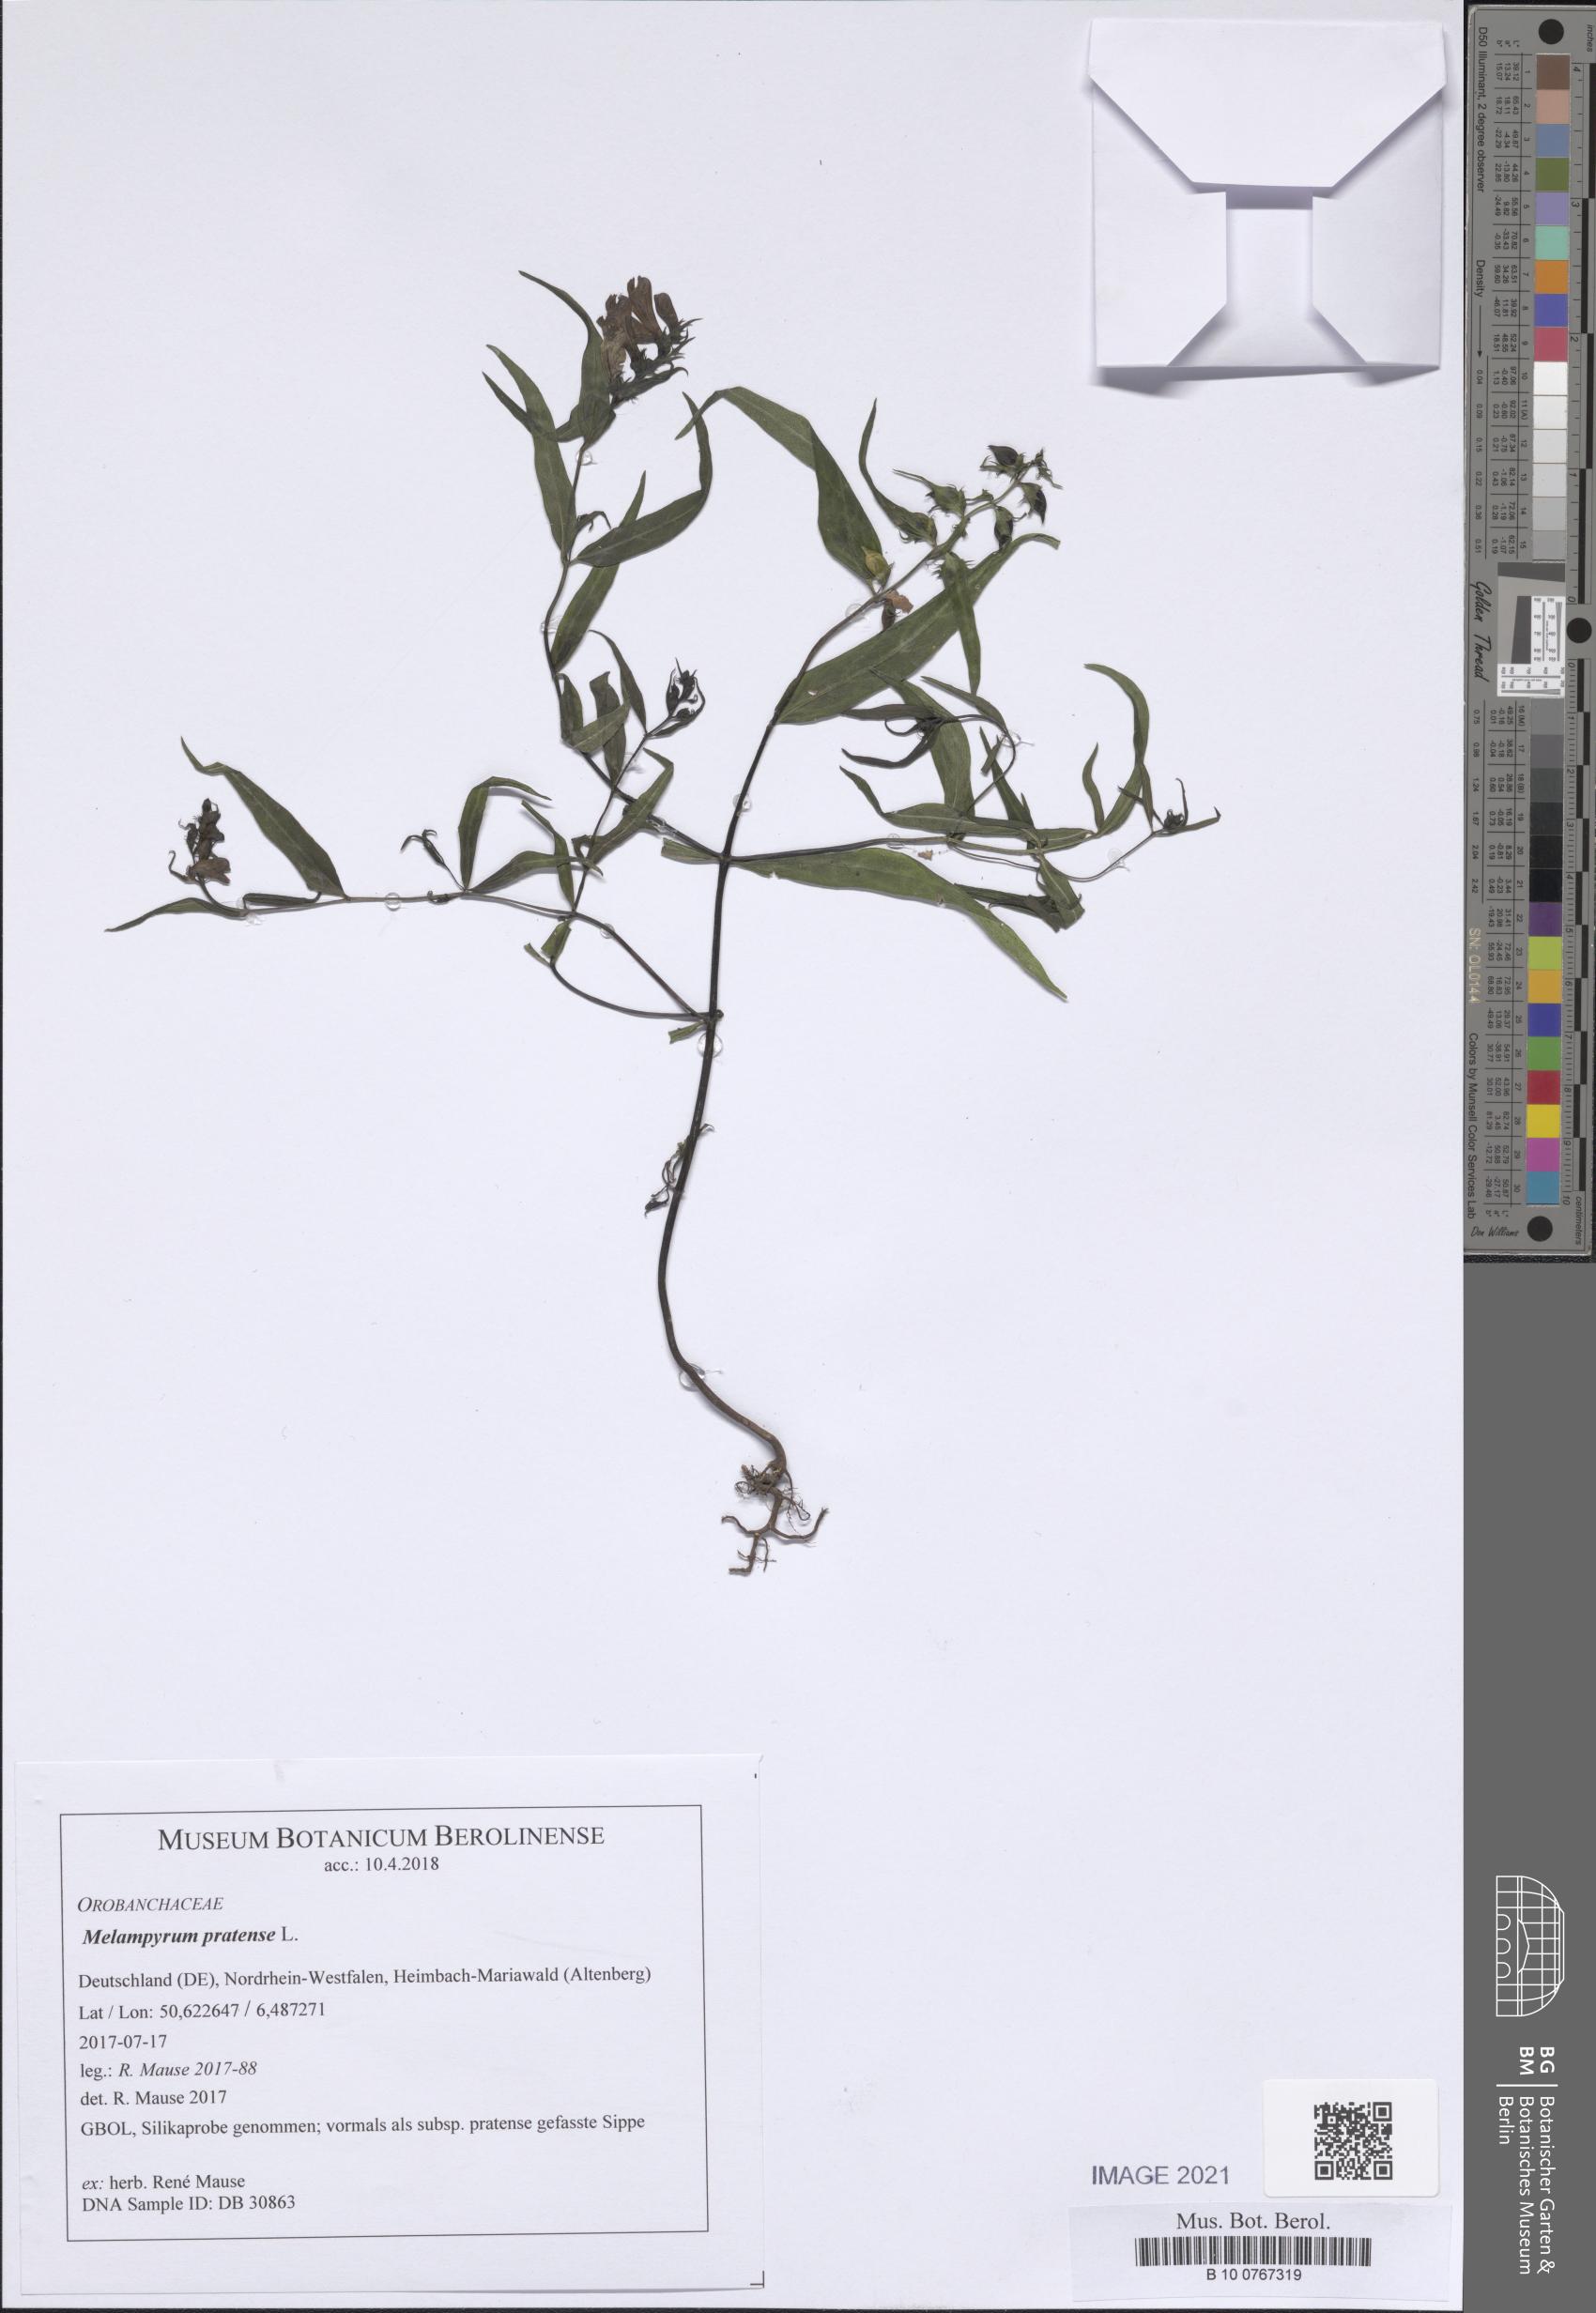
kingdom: Plantae
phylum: Tracheophyta
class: Magnoliopsida
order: Lamiales
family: Orobanchaceae
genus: Melampyrum
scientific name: Melampyrum pratense
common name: Common cow-wheat
